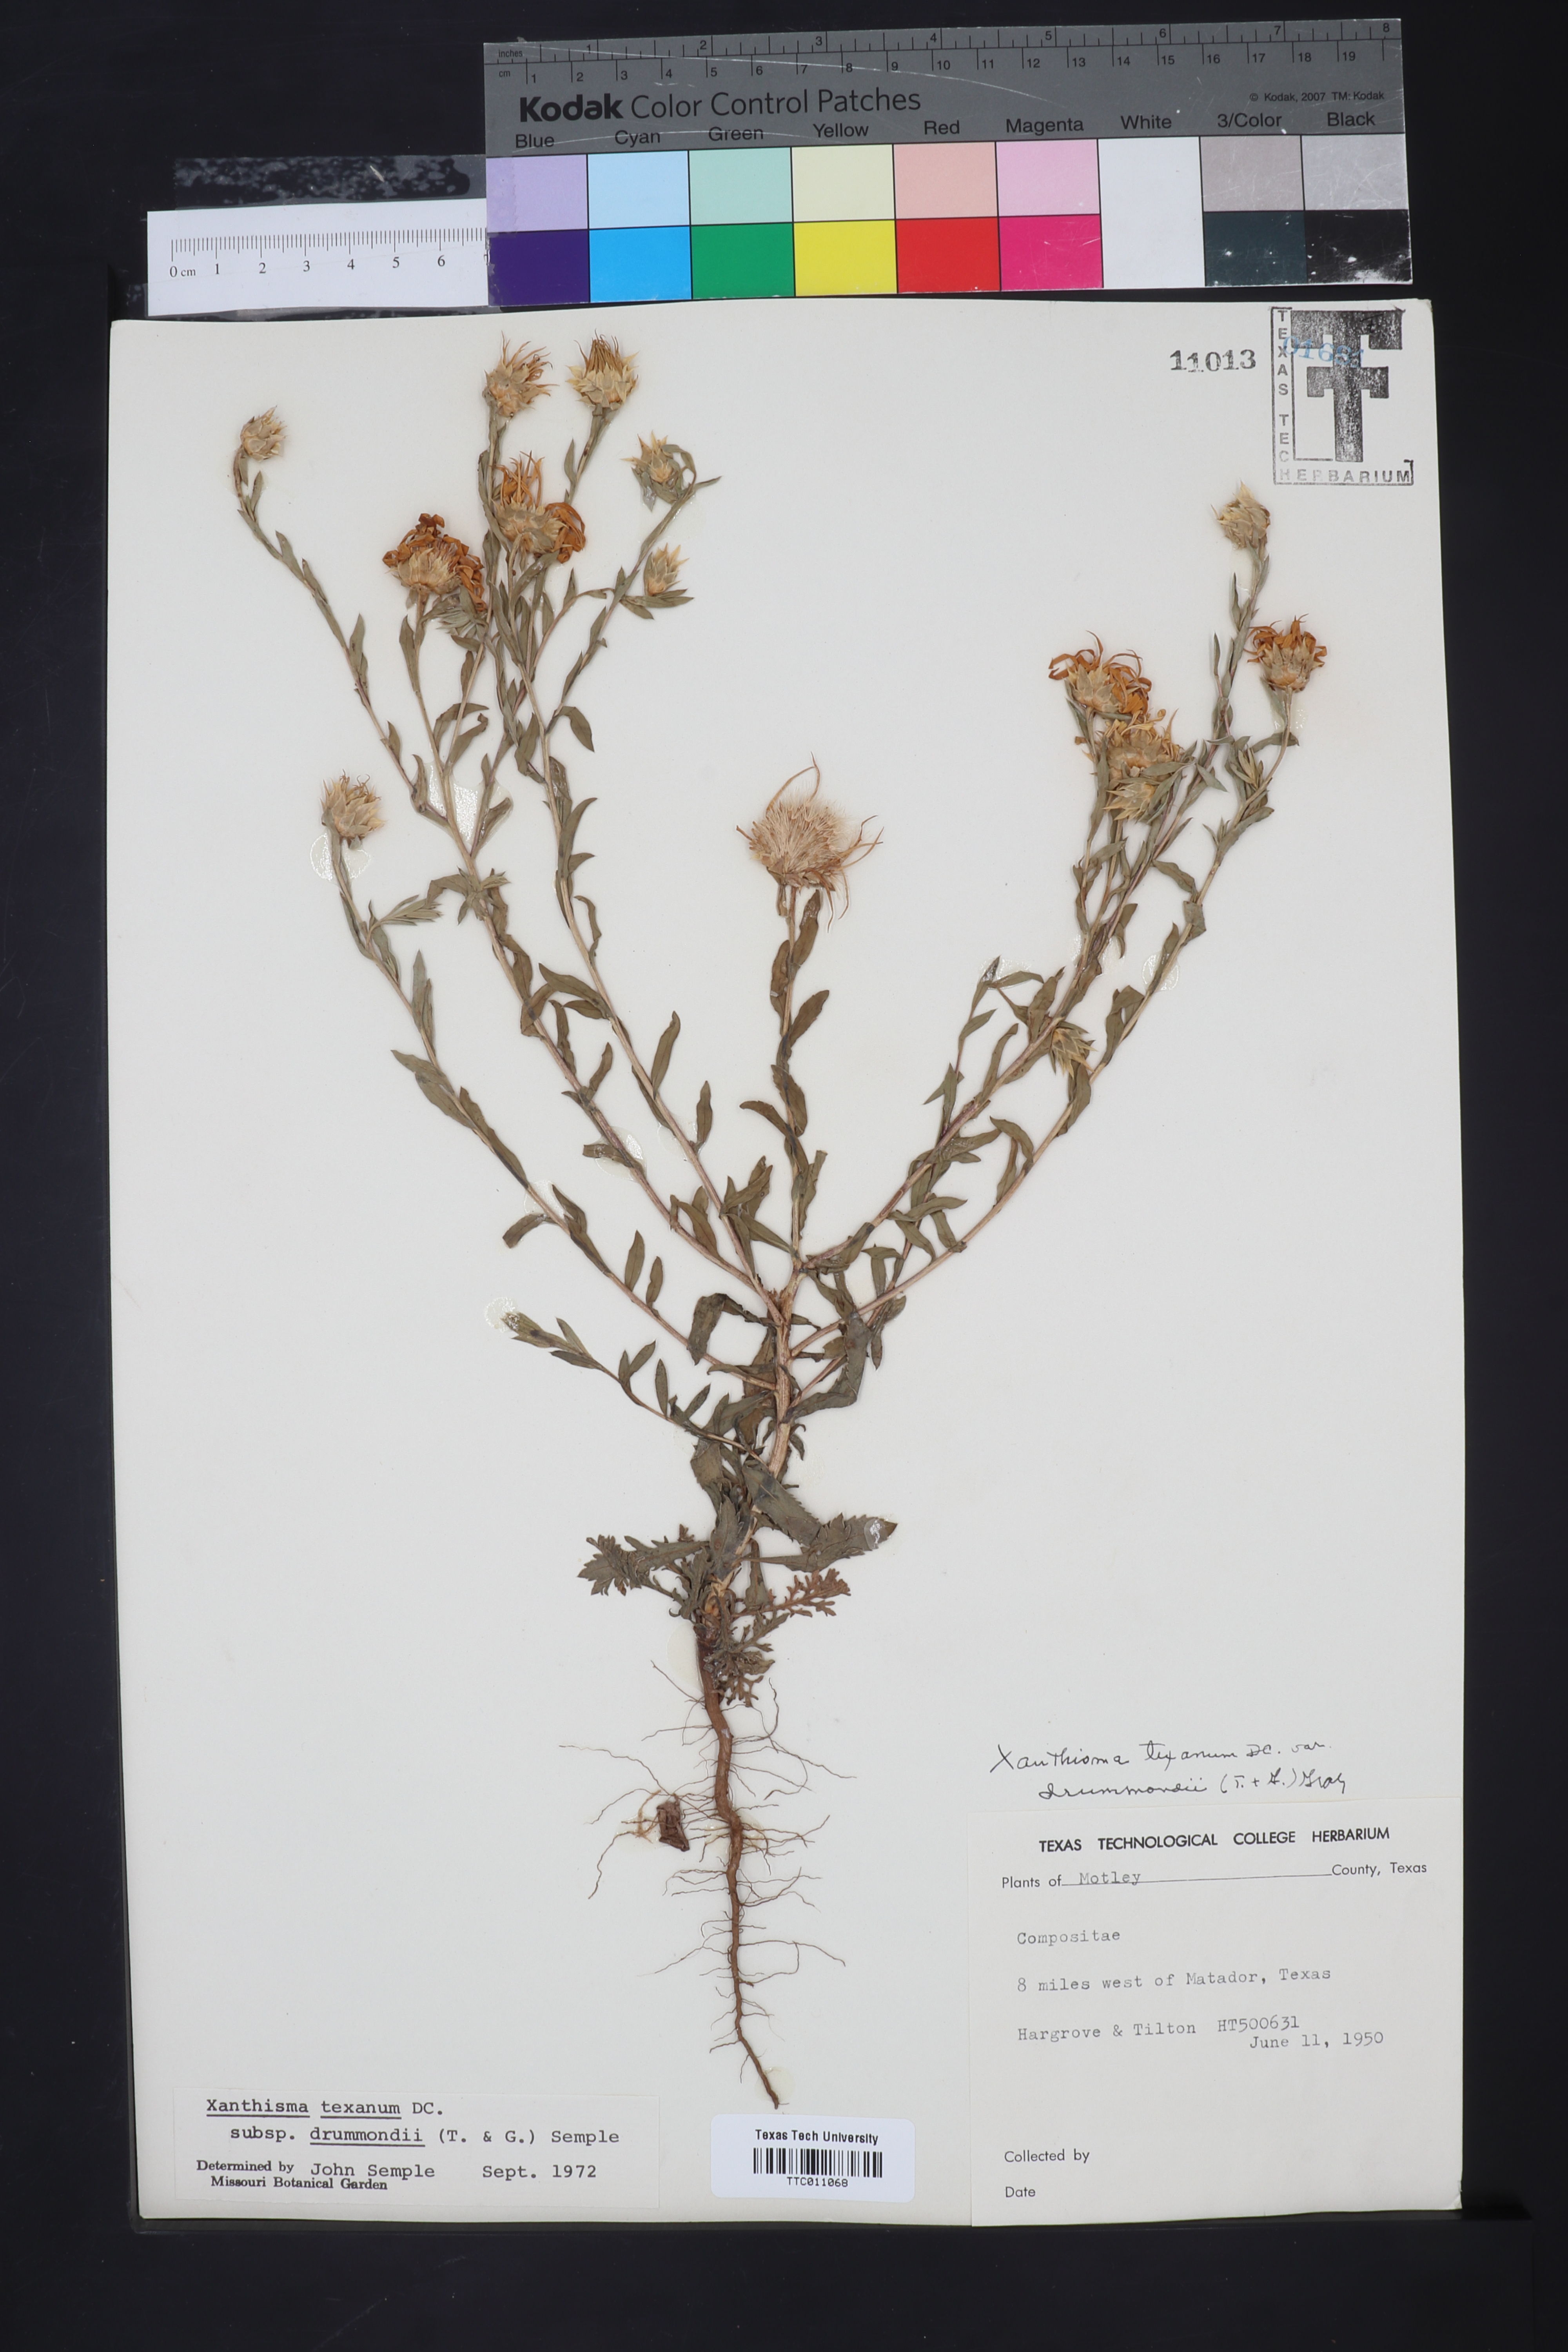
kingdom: Plantae
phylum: Tracheophyta
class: Magnoliopsida
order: Asterales
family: Asteraceae
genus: Xanthisma
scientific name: Xanthisma texanum
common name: Texas sleepy daisy
